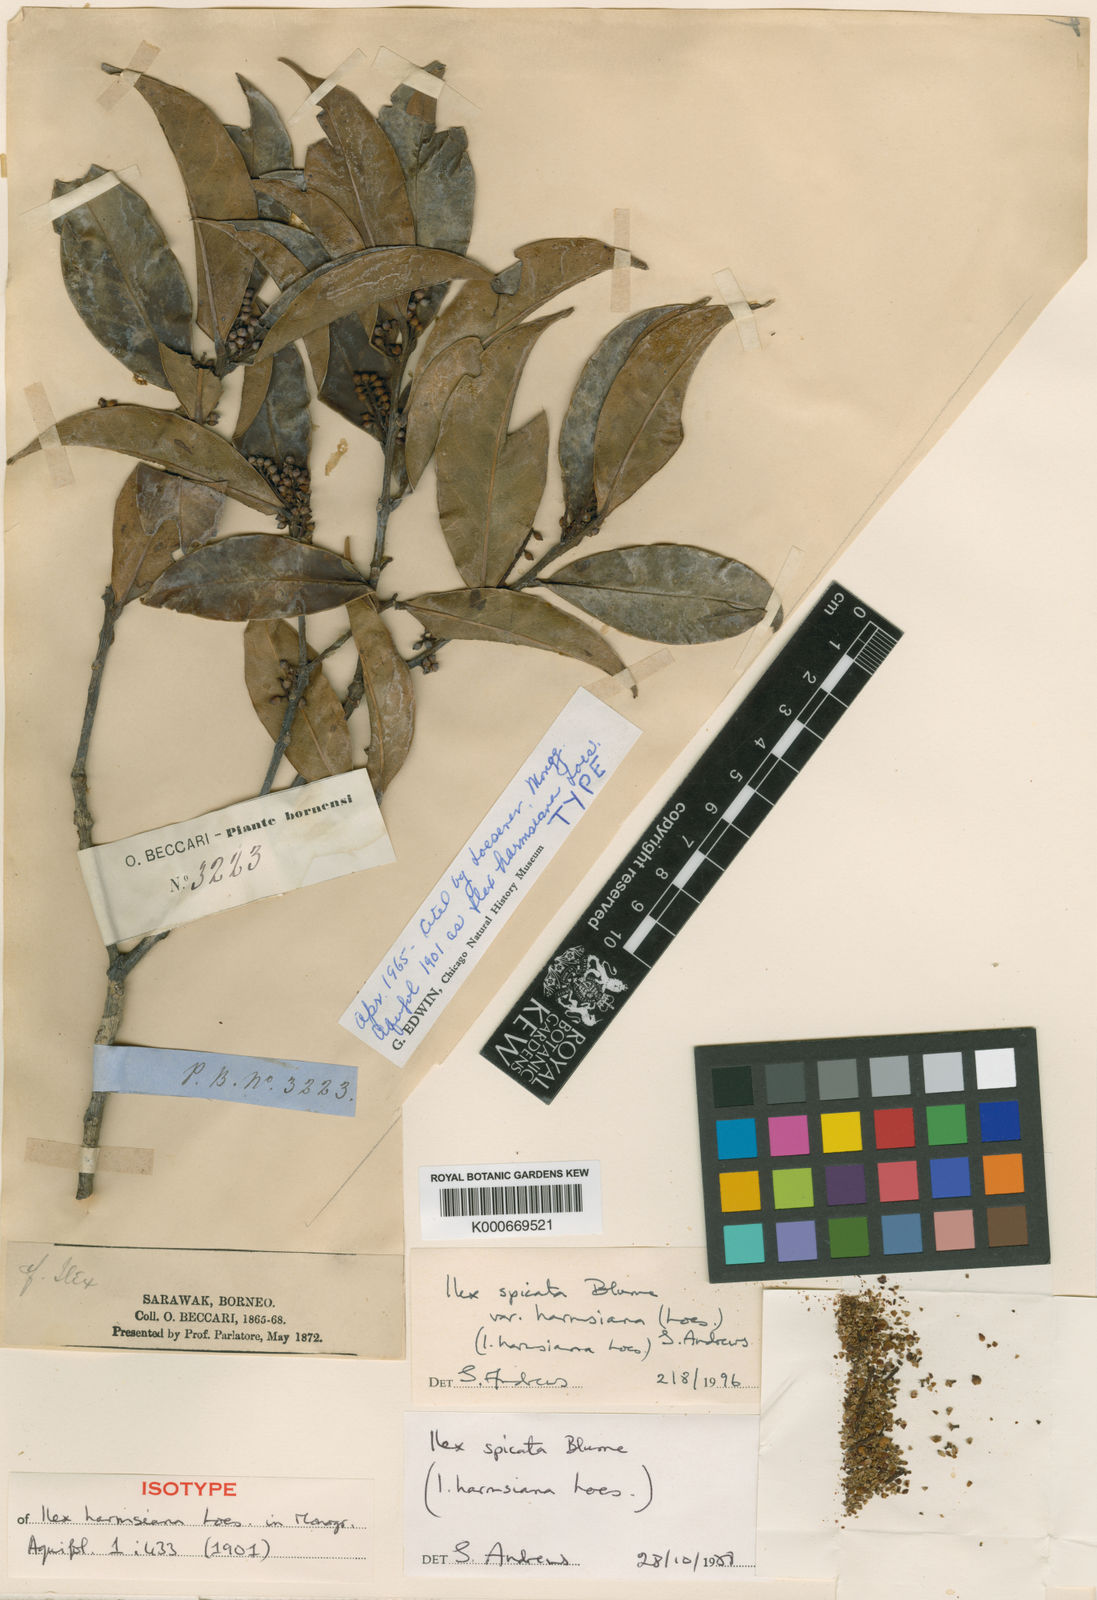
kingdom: Plantae
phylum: Tracheophyta
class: Magnoliopsida
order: Aquifoliales
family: Aquifoliaceae
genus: Ilex
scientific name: Ilex spicata
